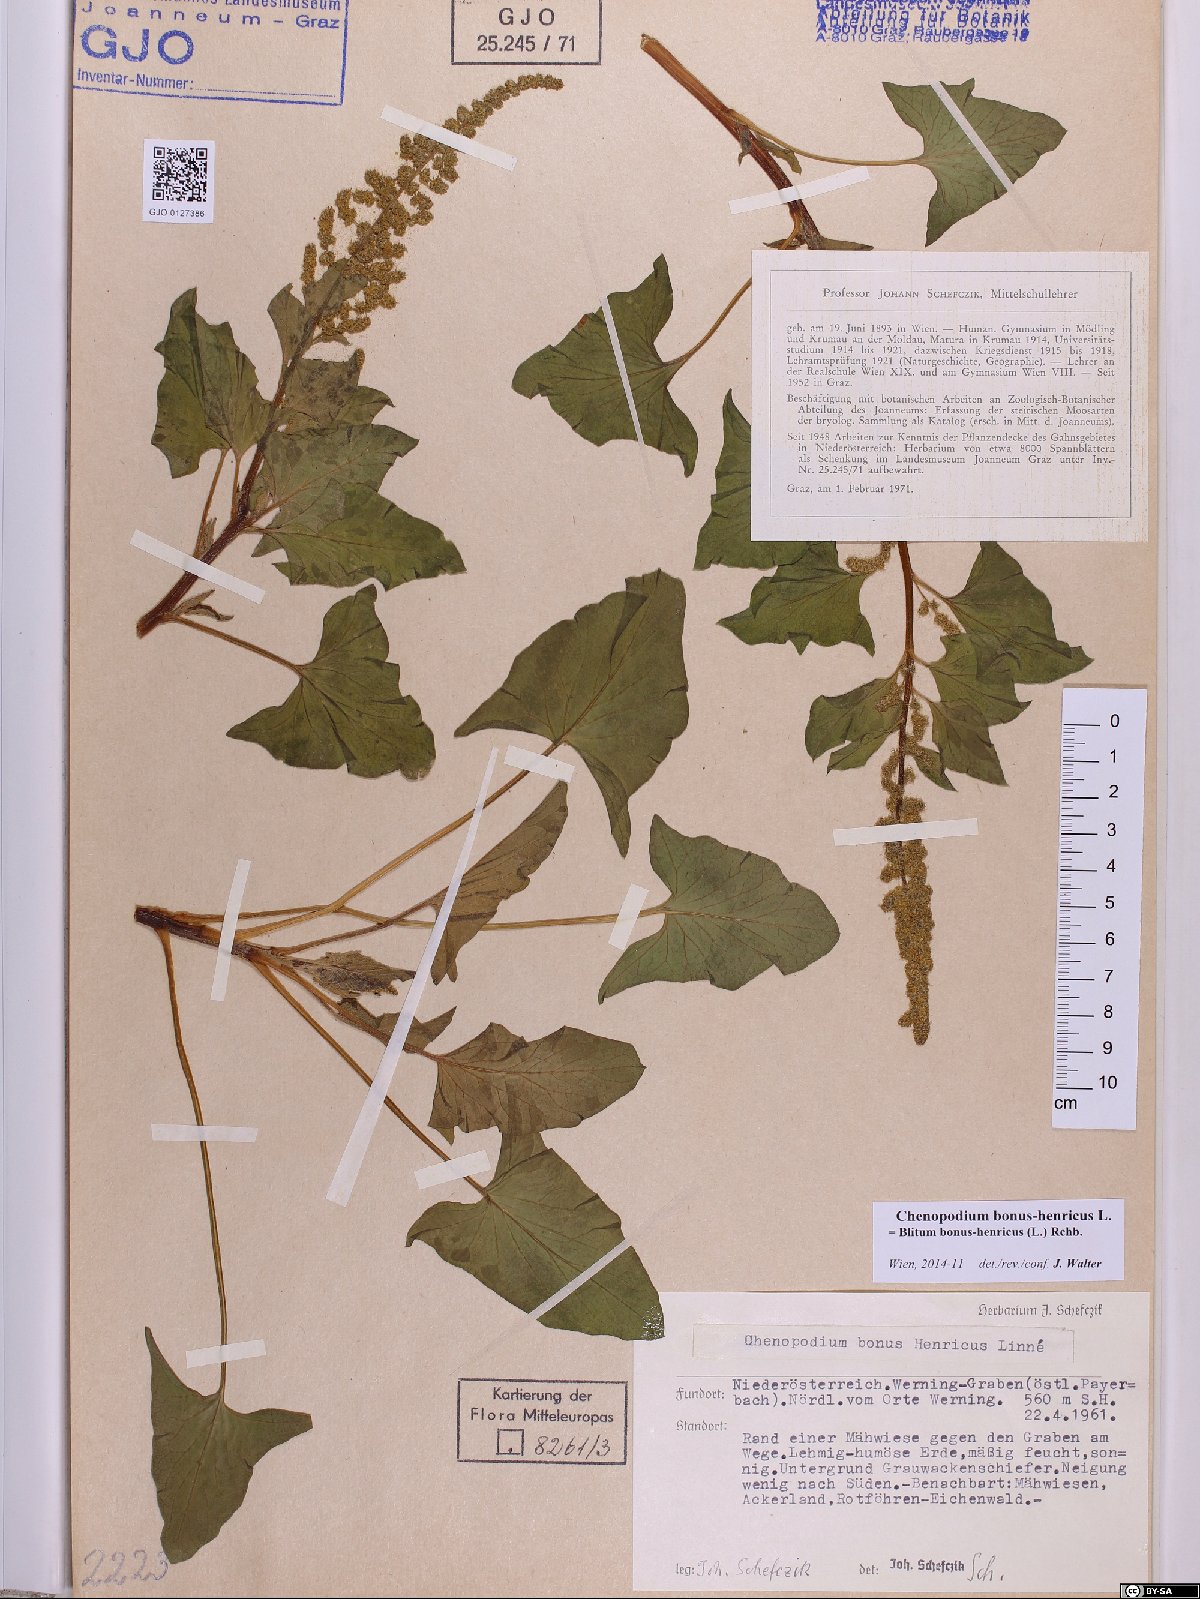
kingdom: Plantae
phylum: Tracheophyta
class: Magnoliopsida
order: Caryophyllales
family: Amaranthaceae
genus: Blitum
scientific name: Blitum bonus-henricus
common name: Good king henry
